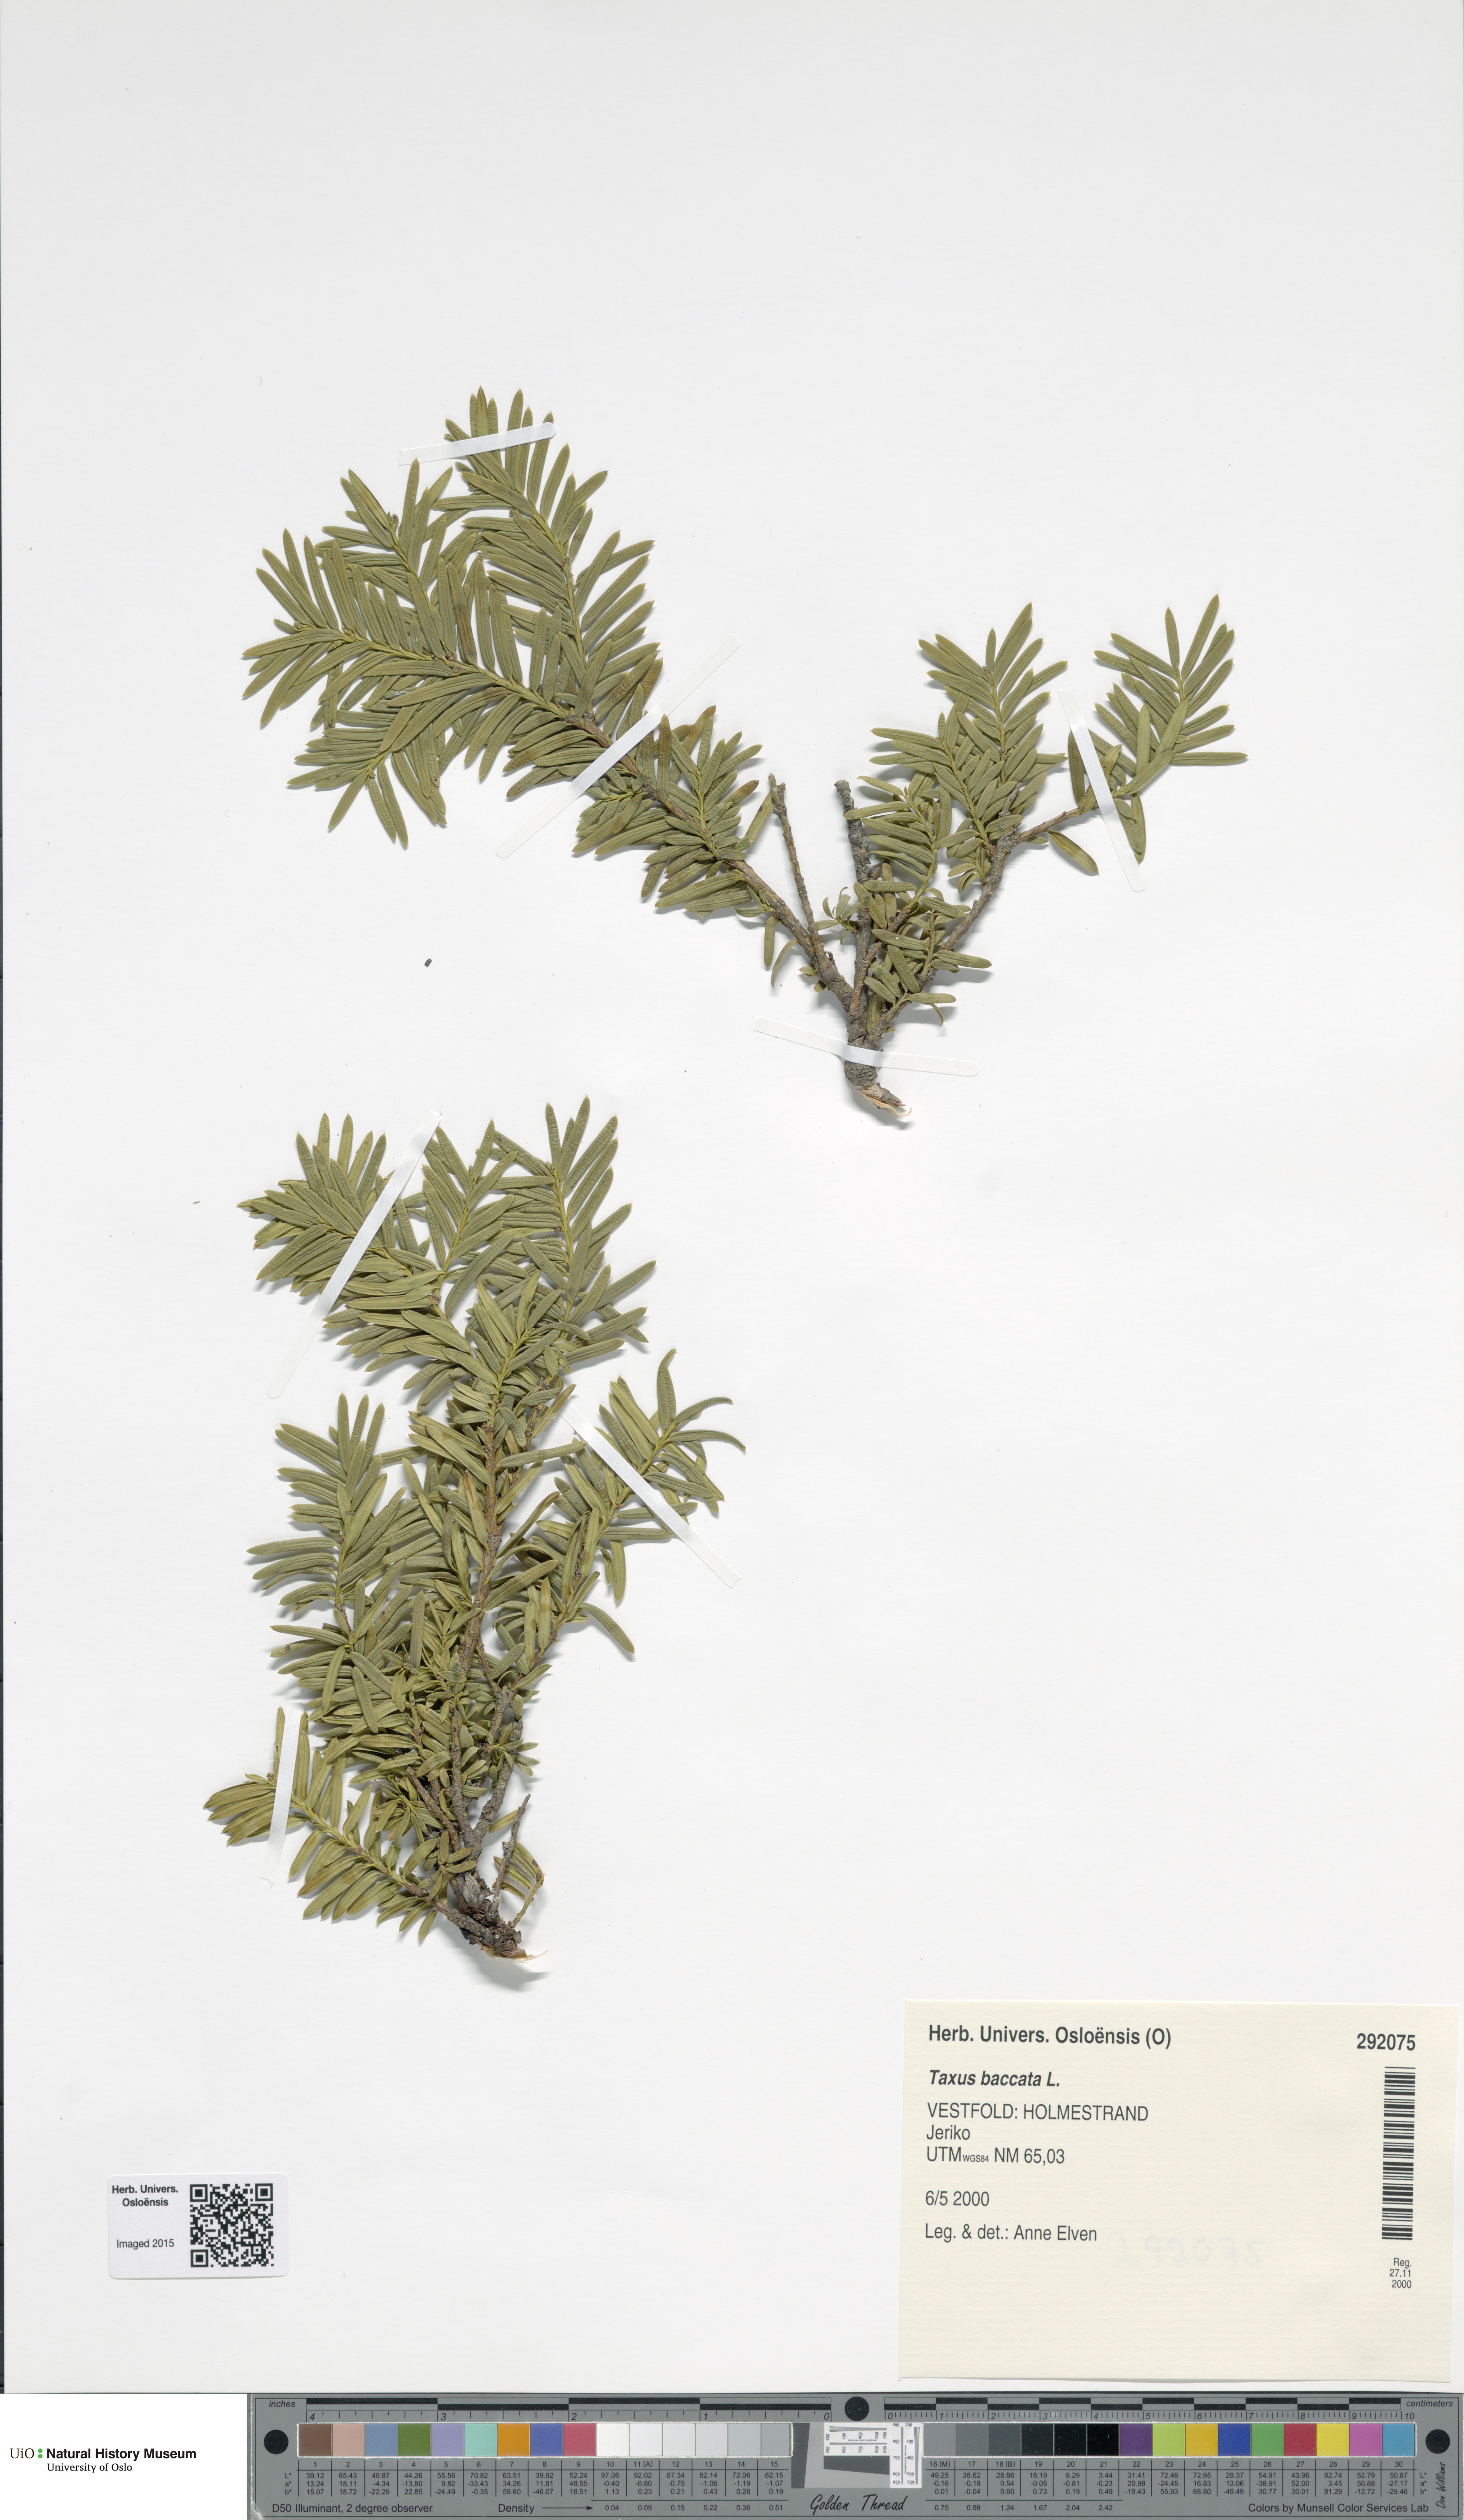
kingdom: Plantae
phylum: Tracheophyta
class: Pinopsida
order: Pinales
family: Taxaceae
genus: Taxus
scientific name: Taxus baccata
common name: Yew
